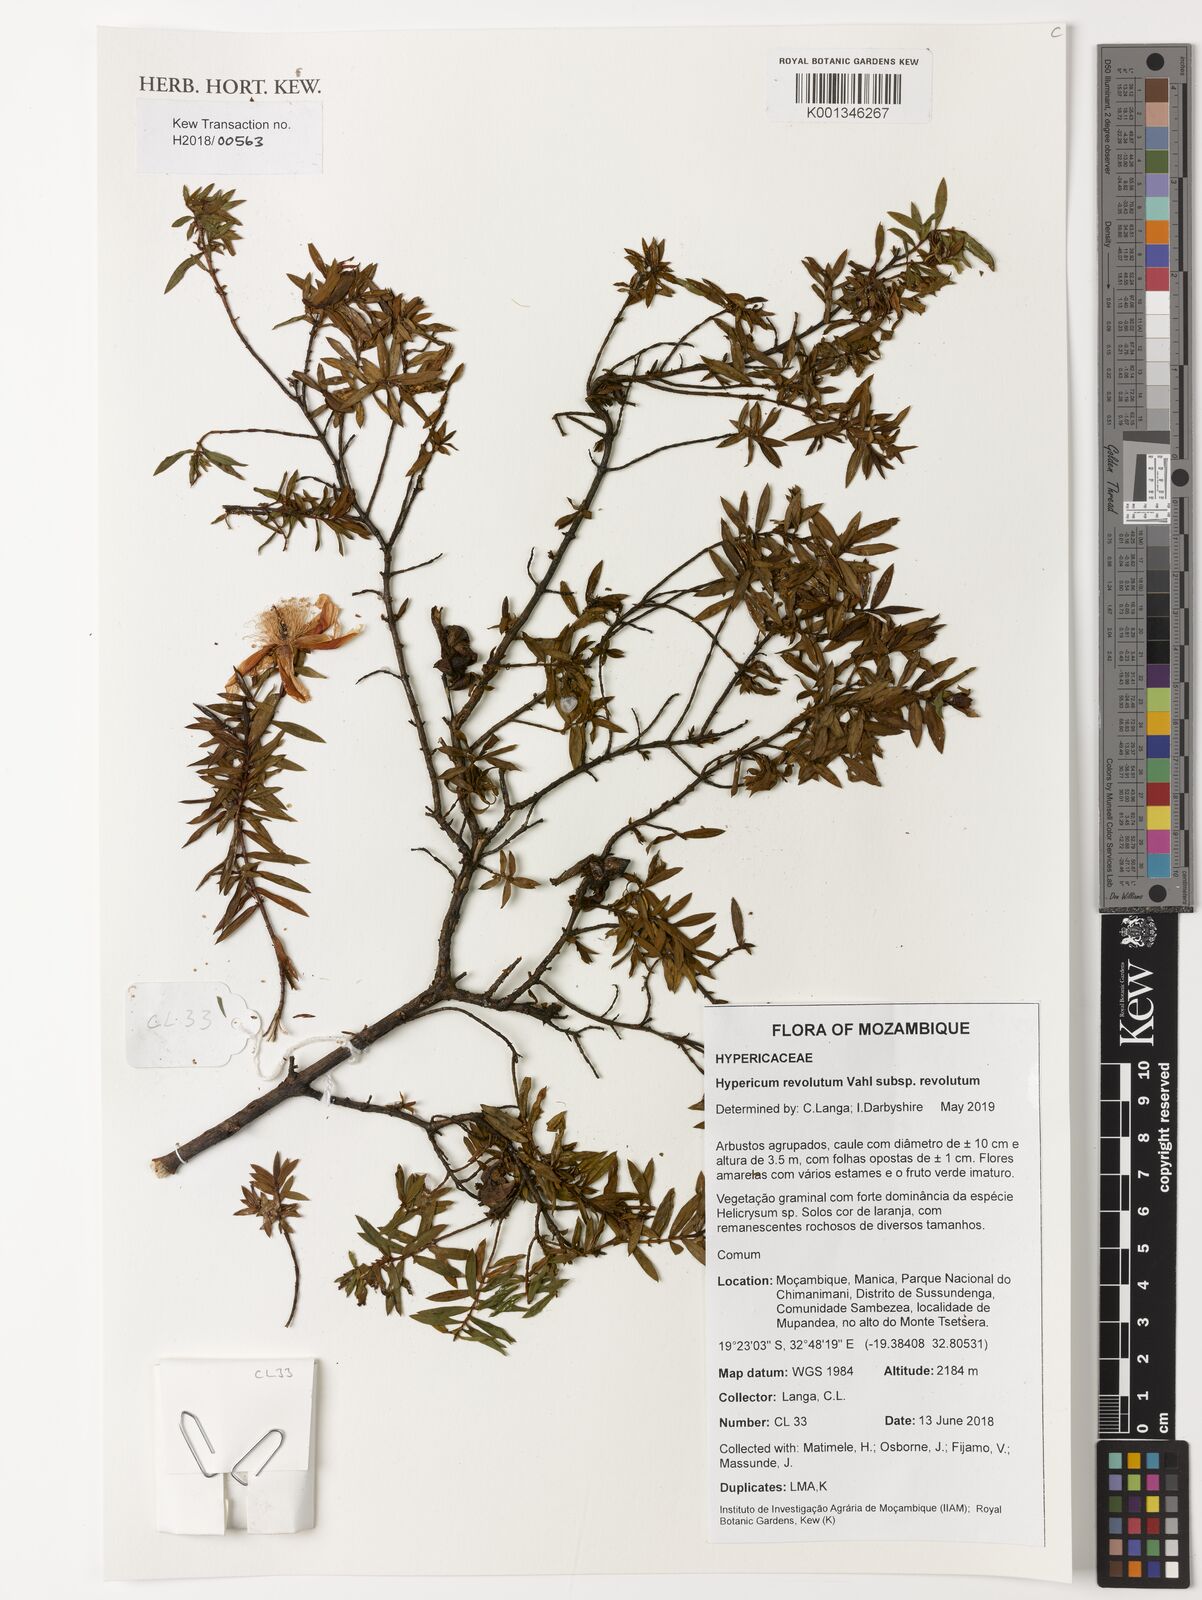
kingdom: Plantae
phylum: Tracheophyta
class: Magnoliopsida
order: Malpighiales
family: Hypericaceae
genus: Hypericum
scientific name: Hypericum revolutum
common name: Curry bush
